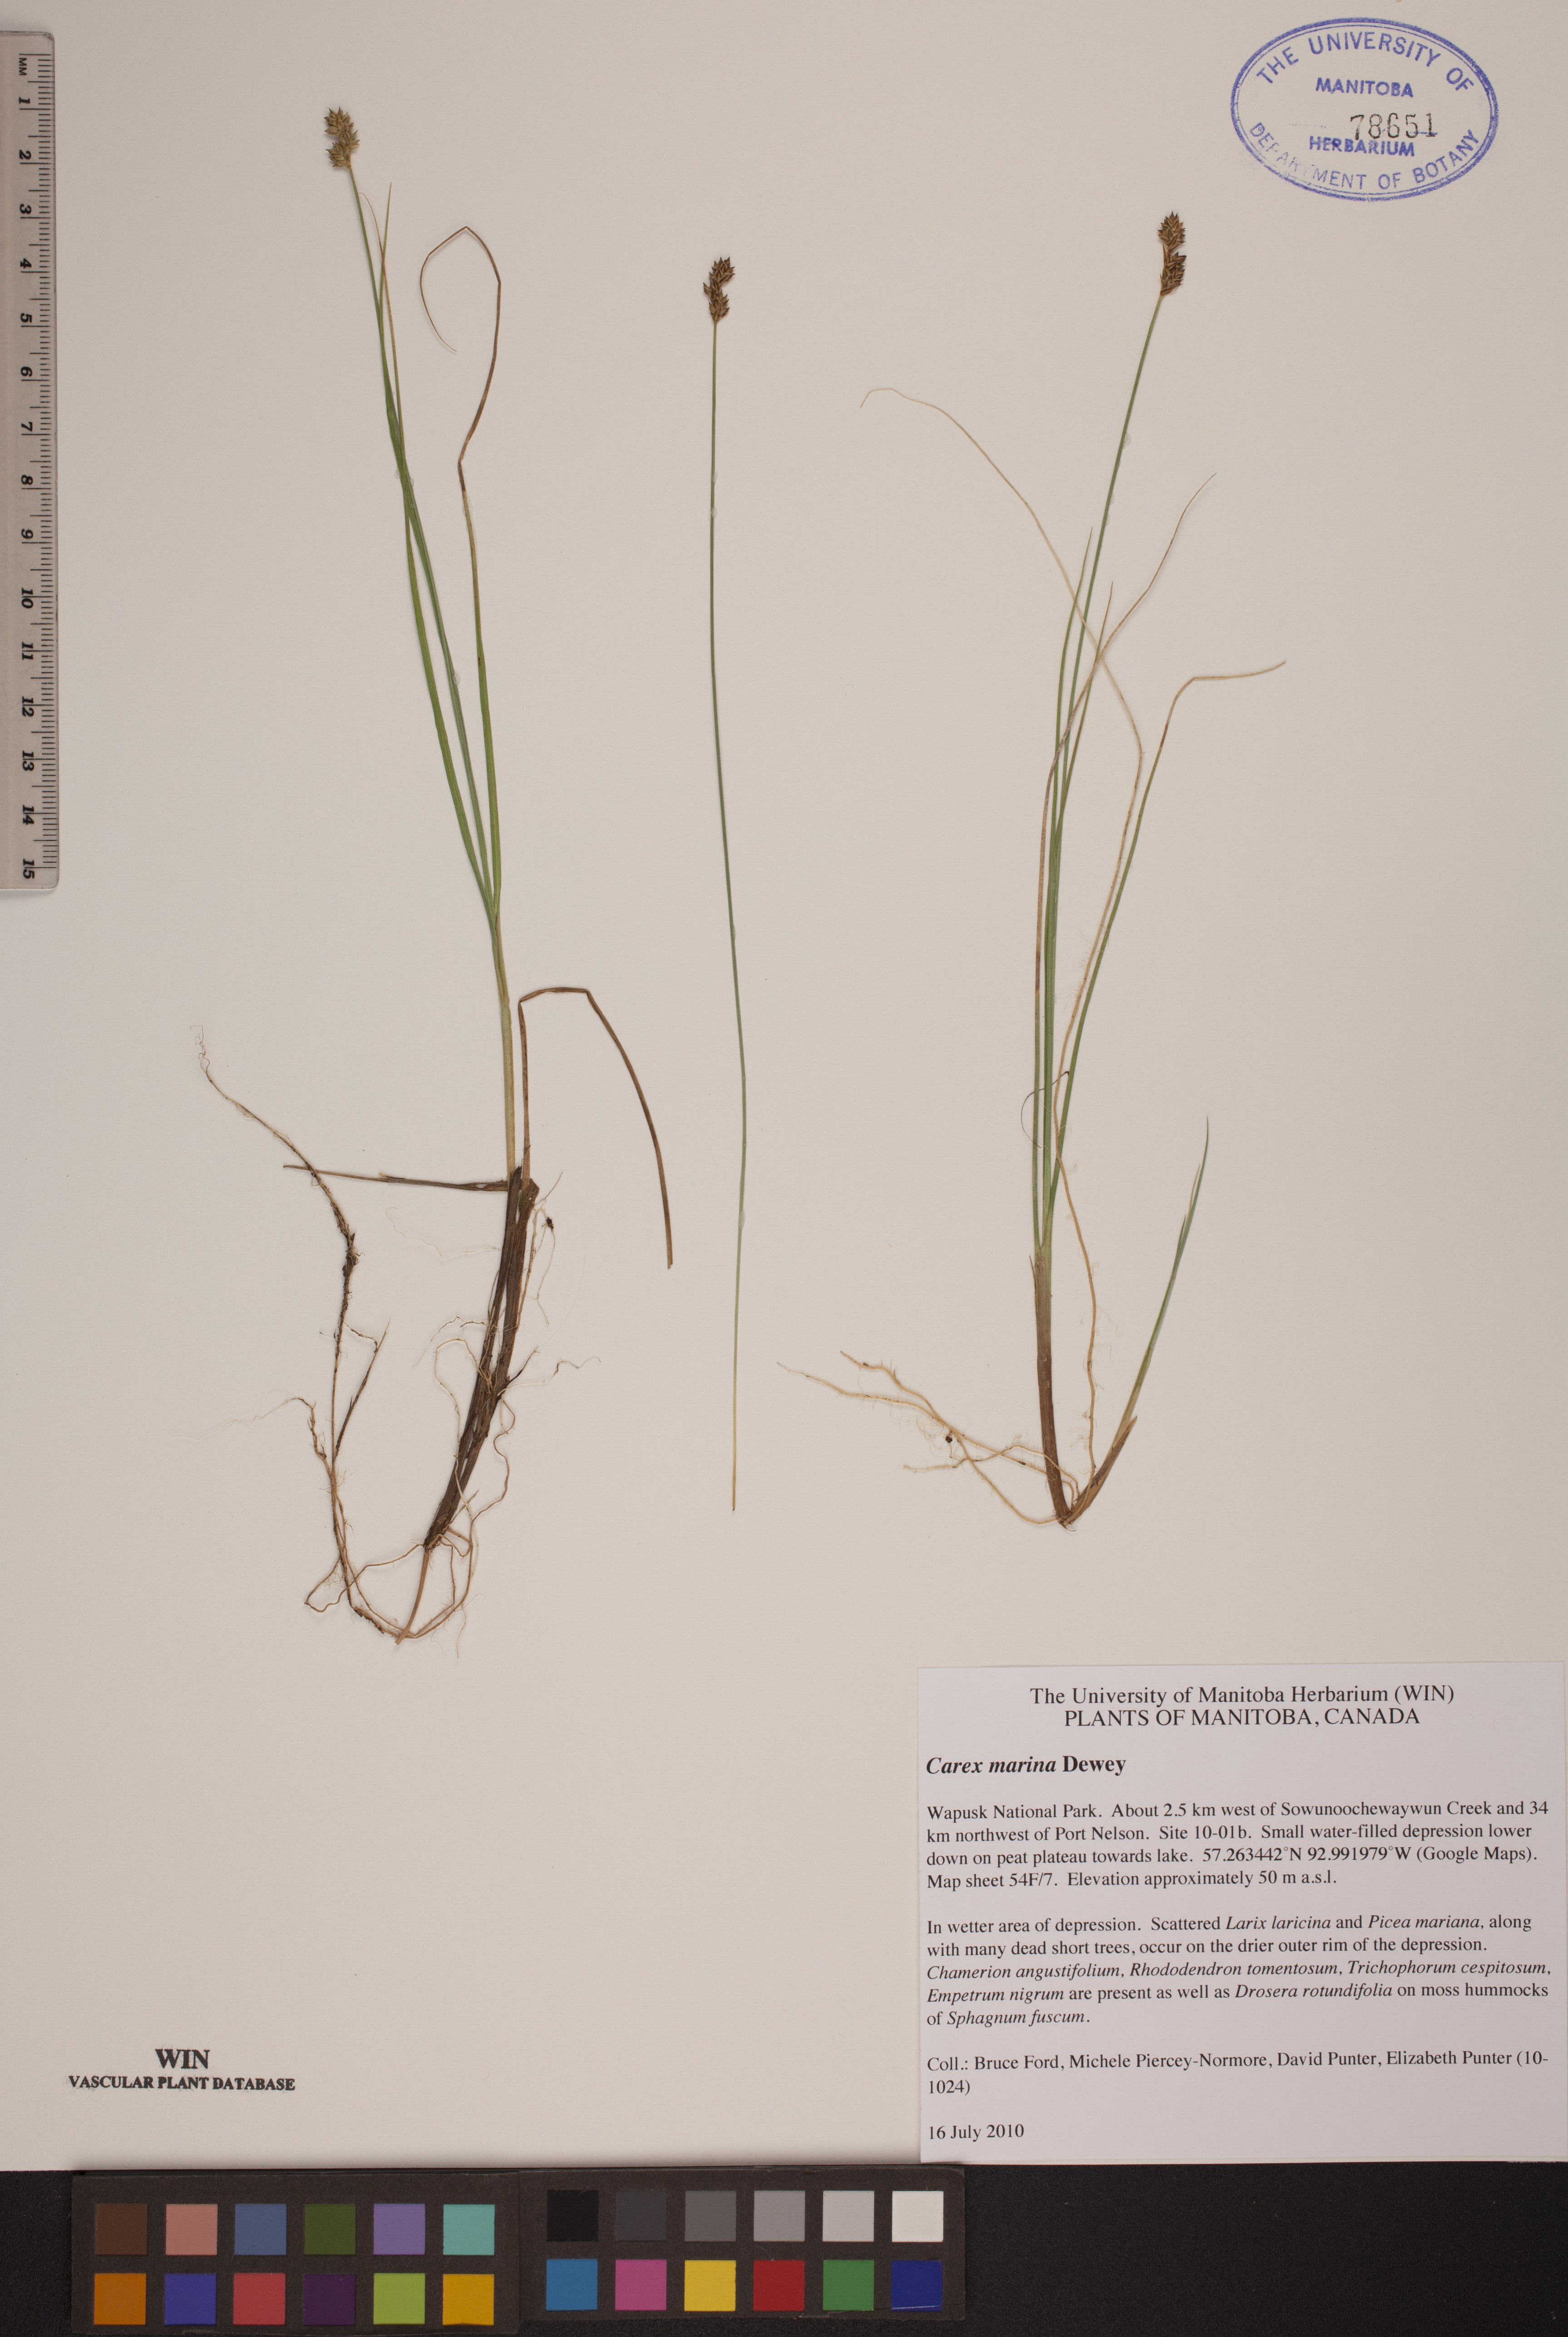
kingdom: Plantae
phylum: Tracheophyta
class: Liliopsida
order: Poales
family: Cyperaceae
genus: Carex
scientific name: Carex marina
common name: Seashore sedge
